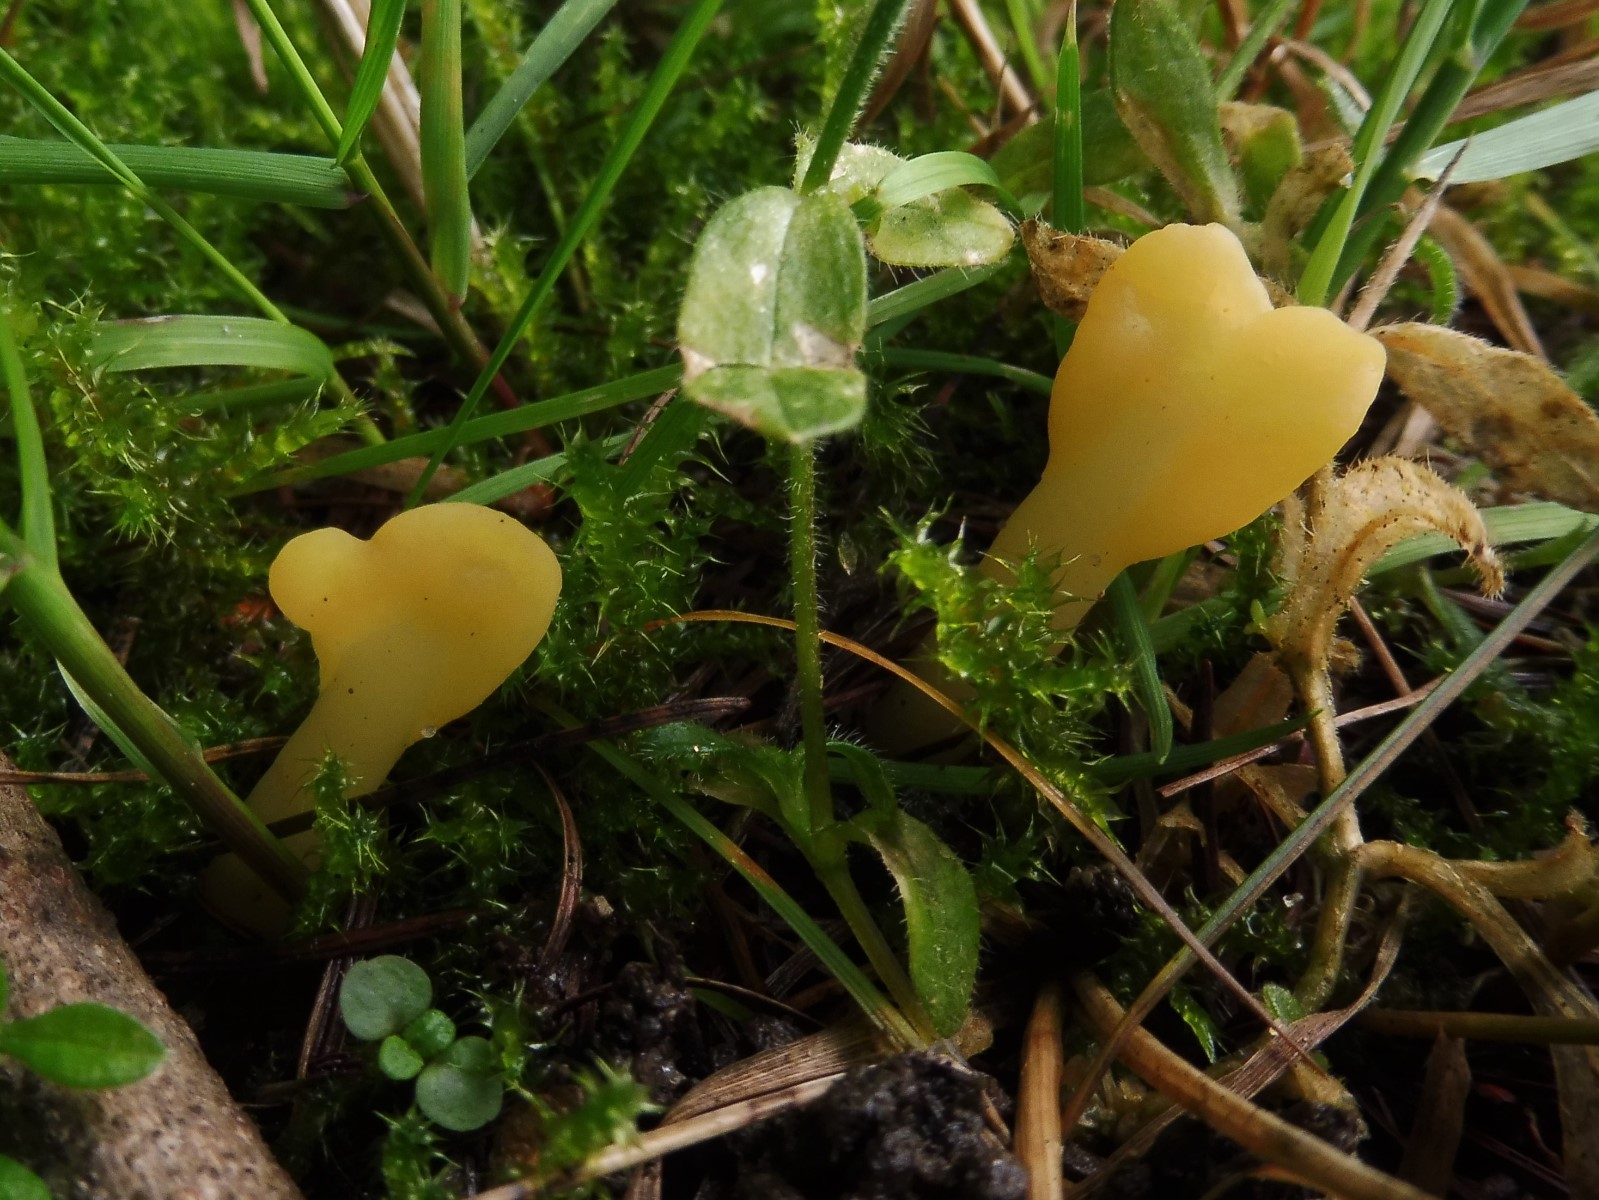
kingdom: Fungi
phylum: Ascomycota
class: Leotiomycetes
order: Rhytismatales
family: Cudoniaceae
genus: Spathularia
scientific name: Spathularia flavida
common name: gul spatelsvamp
